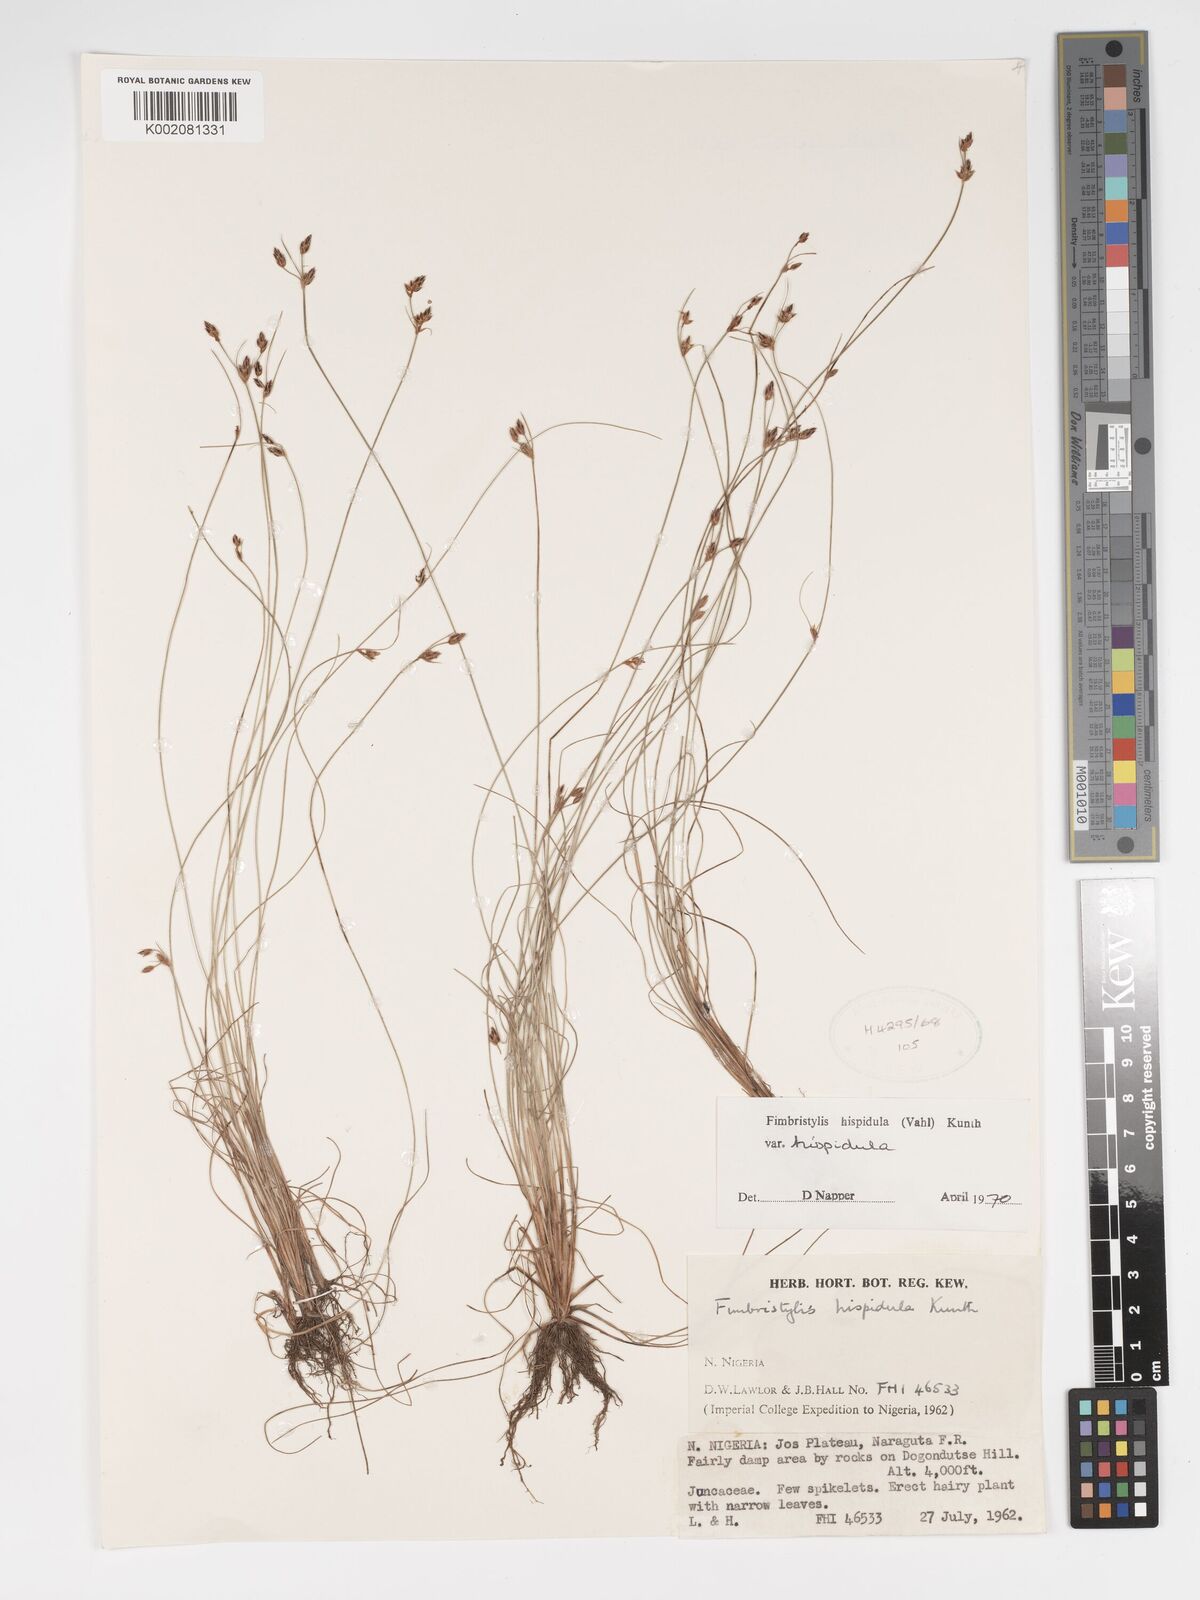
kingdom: Plantae
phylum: Tracheophyta
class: Liliopsida
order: Poales
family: Cyperaceae
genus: Bulbostylis
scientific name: Bulbostylis hispidula
